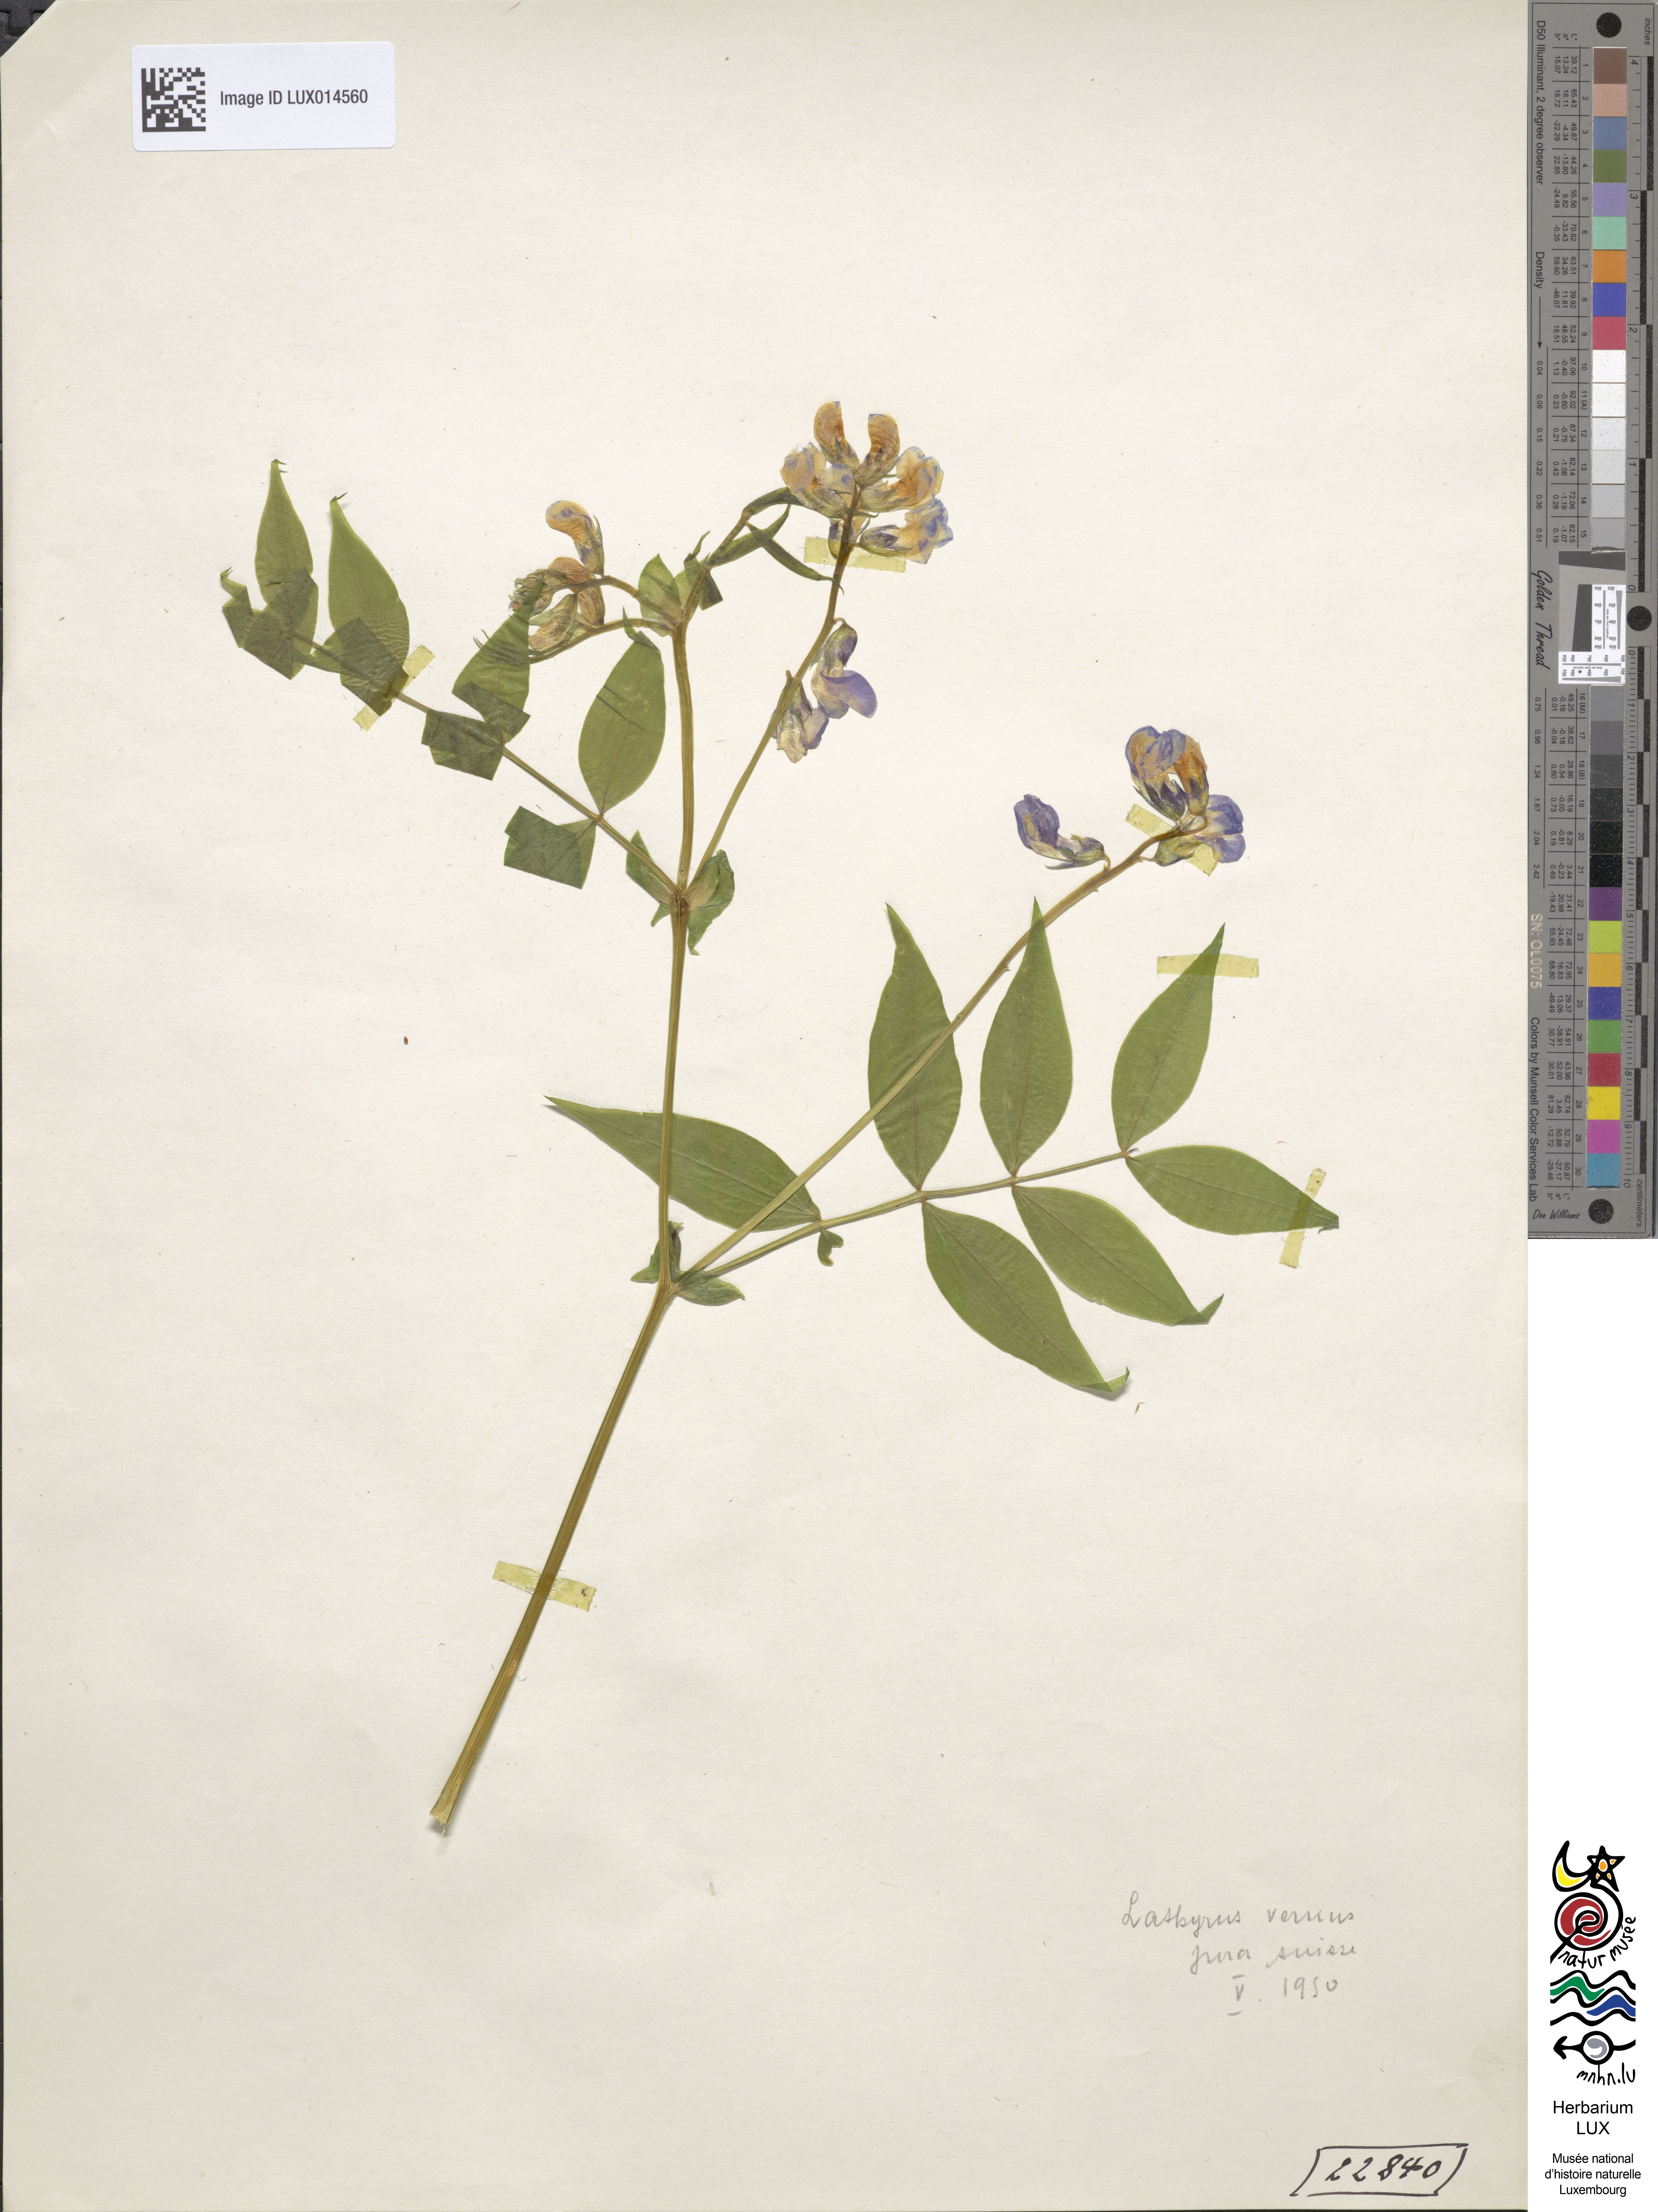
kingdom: Plantae
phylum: Tracheophyta
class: Magnoliopsida
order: Fabales
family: Fabaceae
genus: Lathyrus
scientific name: Lathyrus vernus
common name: Spring pea
